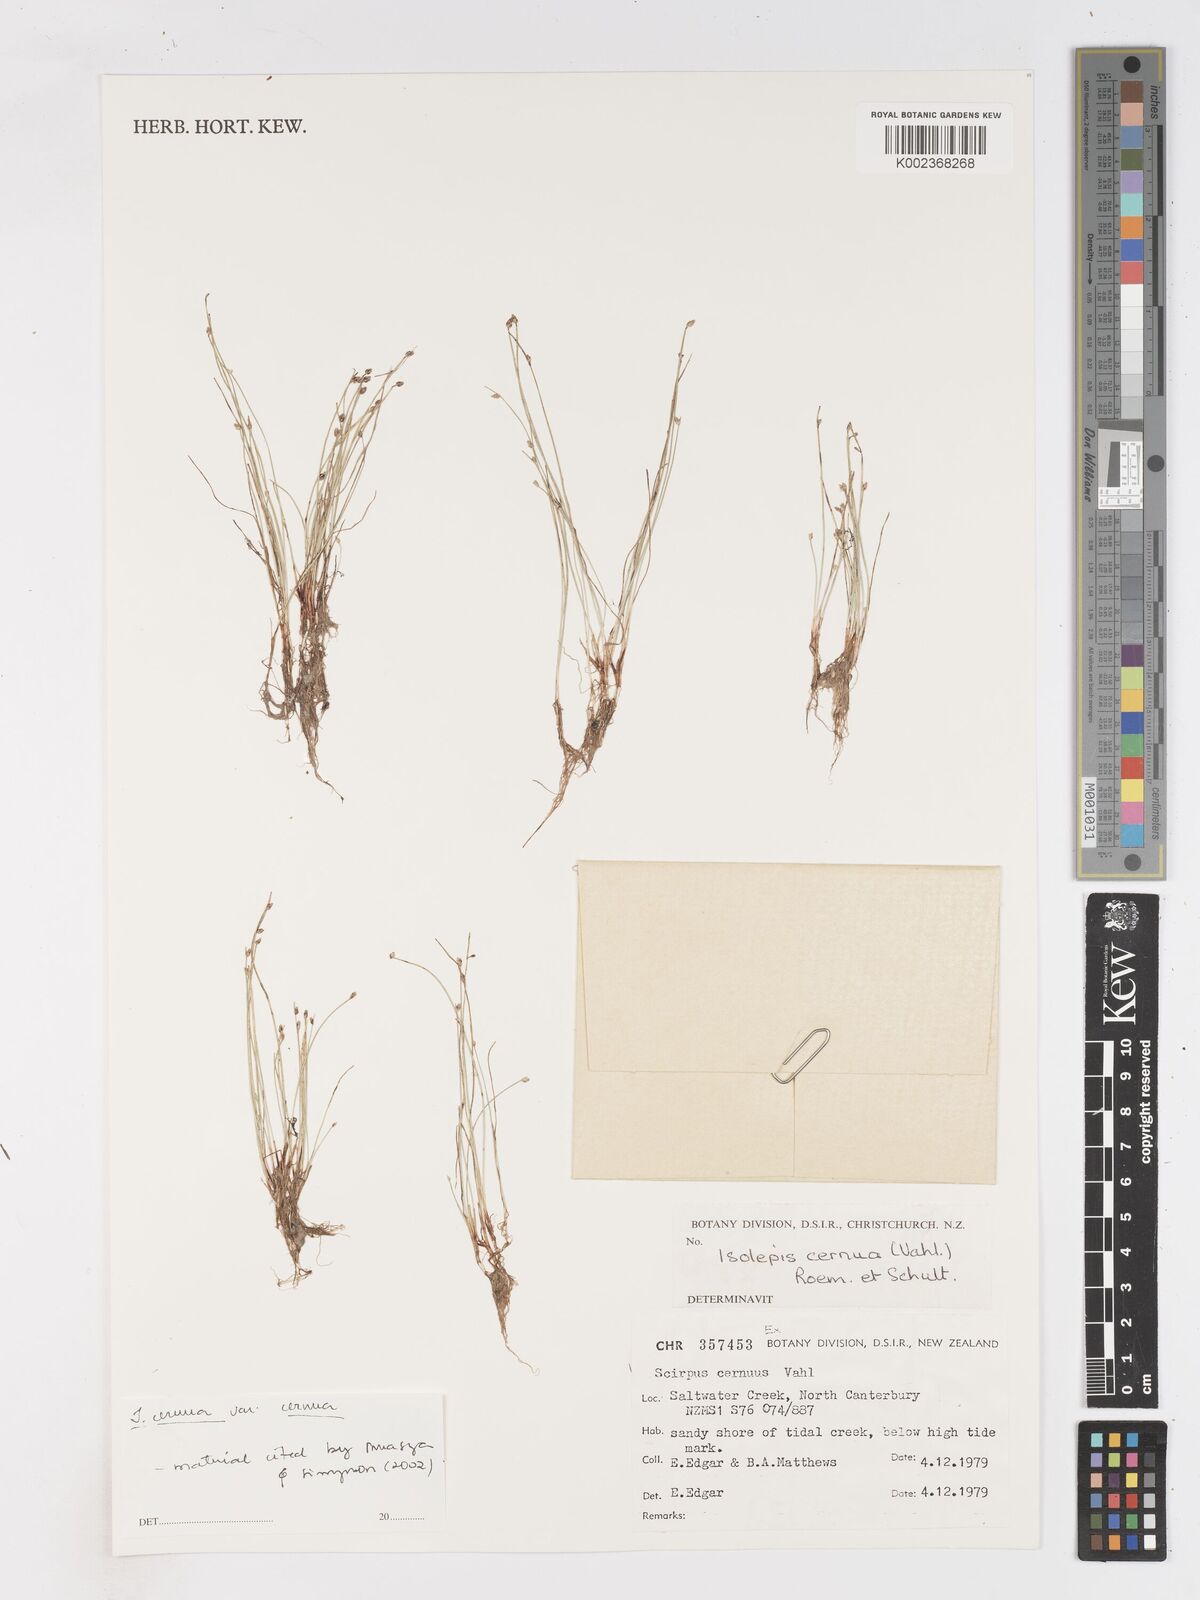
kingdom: Plantae
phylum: Tracheophyta
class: Liliopsida
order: Poales
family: Cyperaceae
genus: Isolepis
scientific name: Isolepis cernua
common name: Slender club-rush
